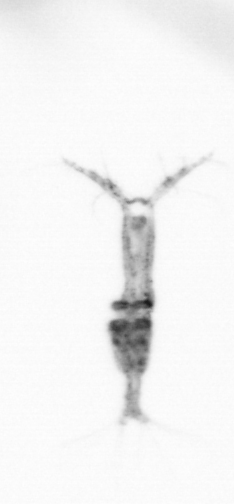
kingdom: Animalia
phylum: Arthropoda
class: Copepoda
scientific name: Copepoda
